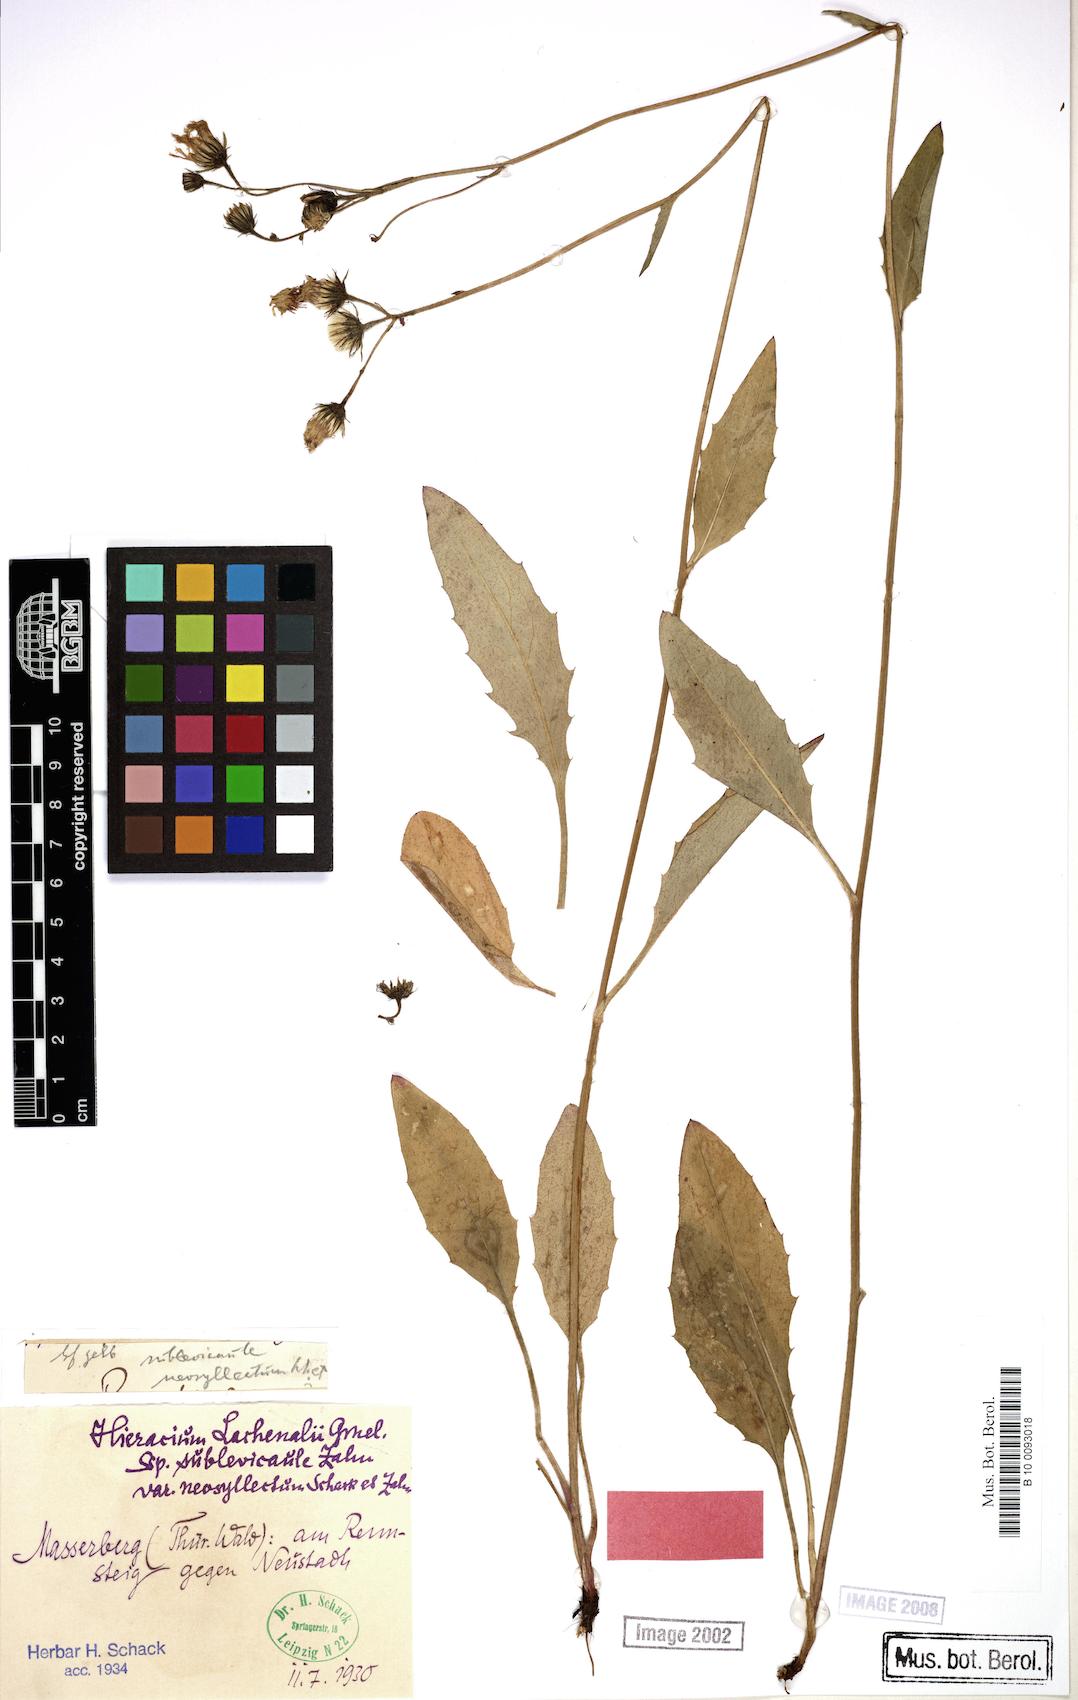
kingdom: Plantae
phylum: Tracheophyta
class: Magnoliopsida
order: Asterales
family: Asteraceae
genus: Hieracium
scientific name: Hieracium lachenalii
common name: Common hawkweed
